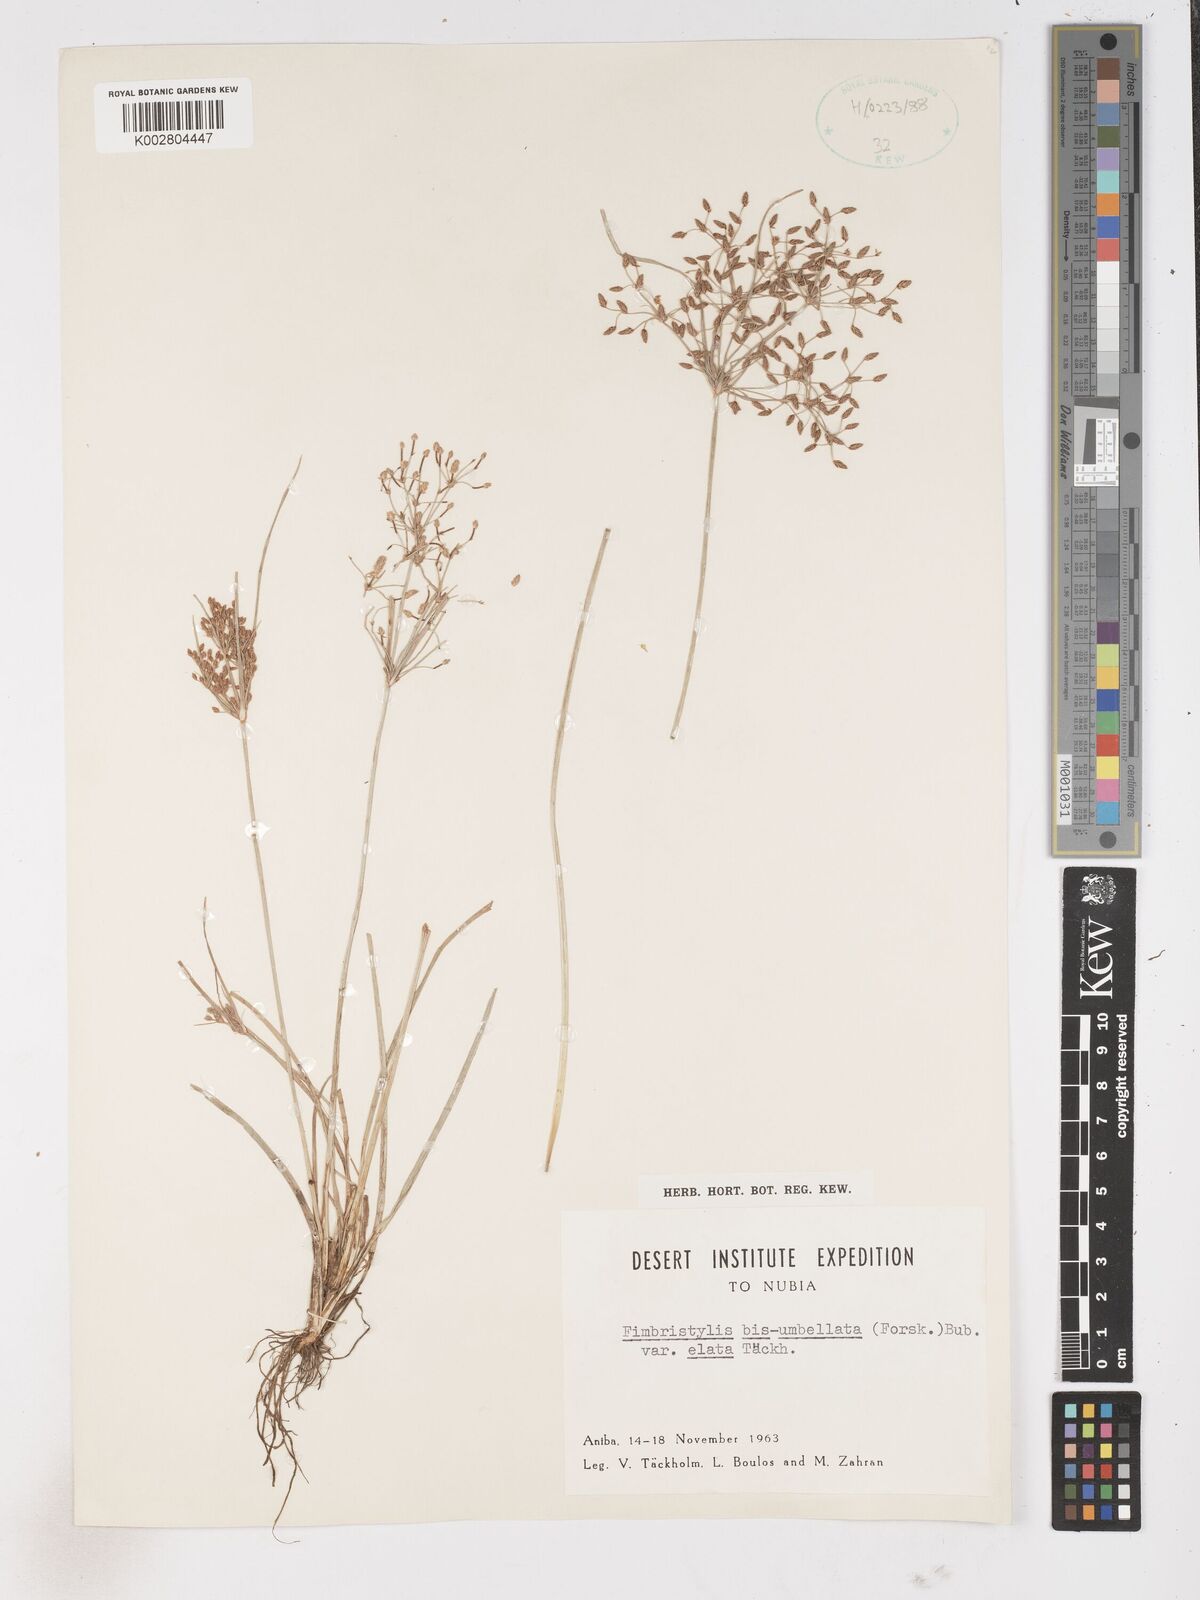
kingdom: Plantae
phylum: Tracheophyta
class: Liliopsida
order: Poales
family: Cyperaceae
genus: Fimbristylis
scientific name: Fimbristylis bisumbellata
